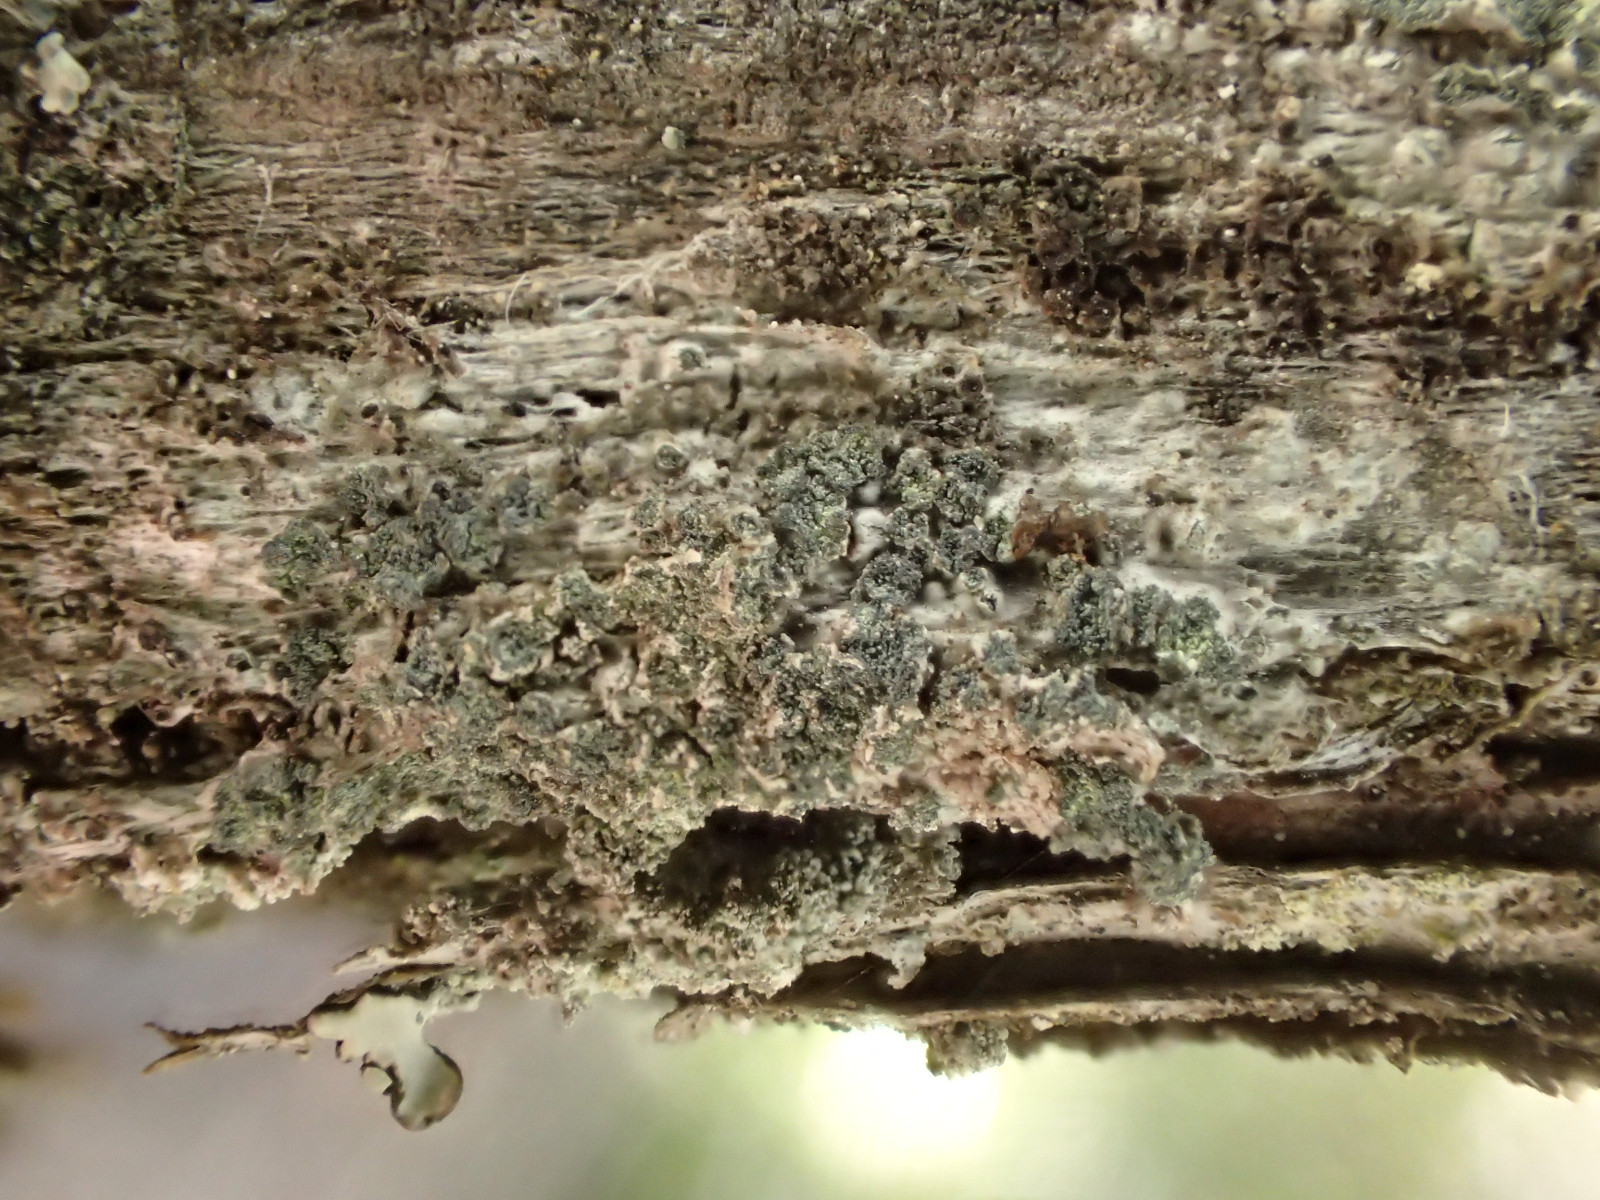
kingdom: Fungi
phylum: Ascomycota
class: Lecanoromycetes
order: Caliciales
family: Caliciaceae
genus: Buellia
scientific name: Buellia griseovirens
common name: grågrøn sortskivelav
